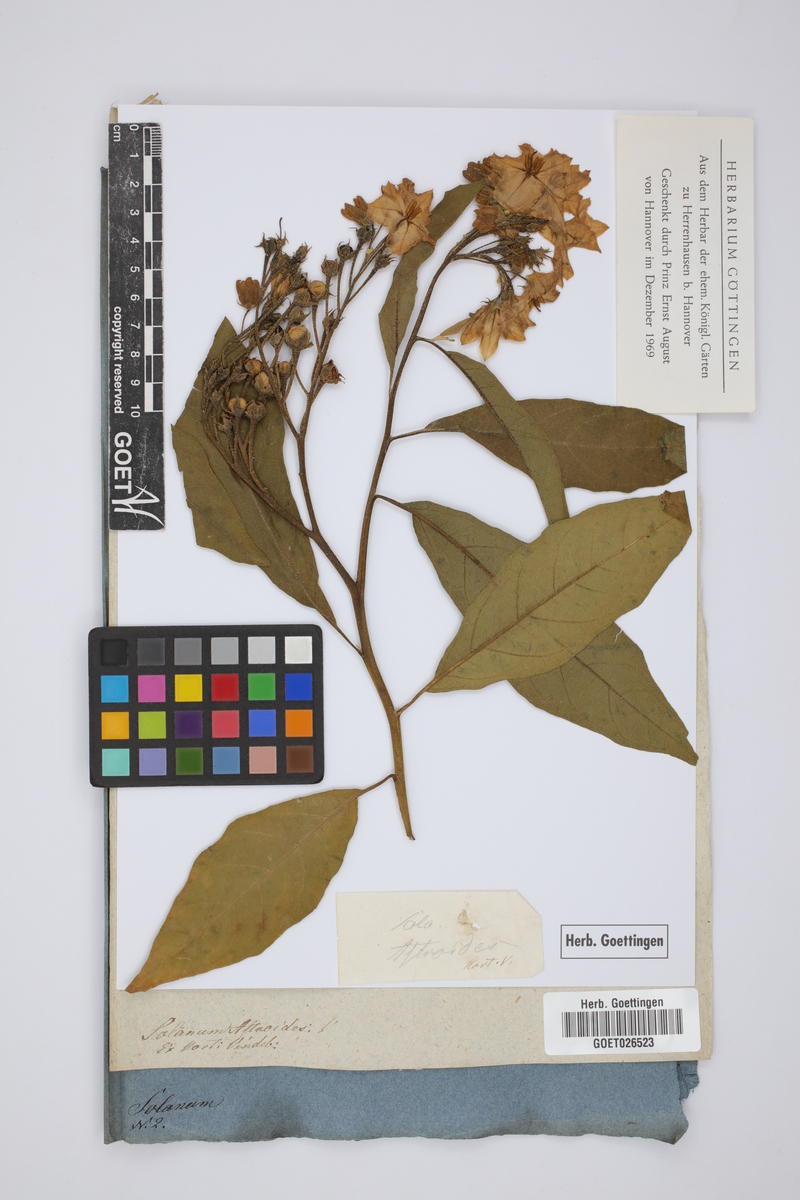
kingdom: Plantae
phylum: Tracheophyta
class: Magnoliopsida
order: Solanales
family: Solanaceae
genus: Solanum
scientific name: Solanum bonariense
